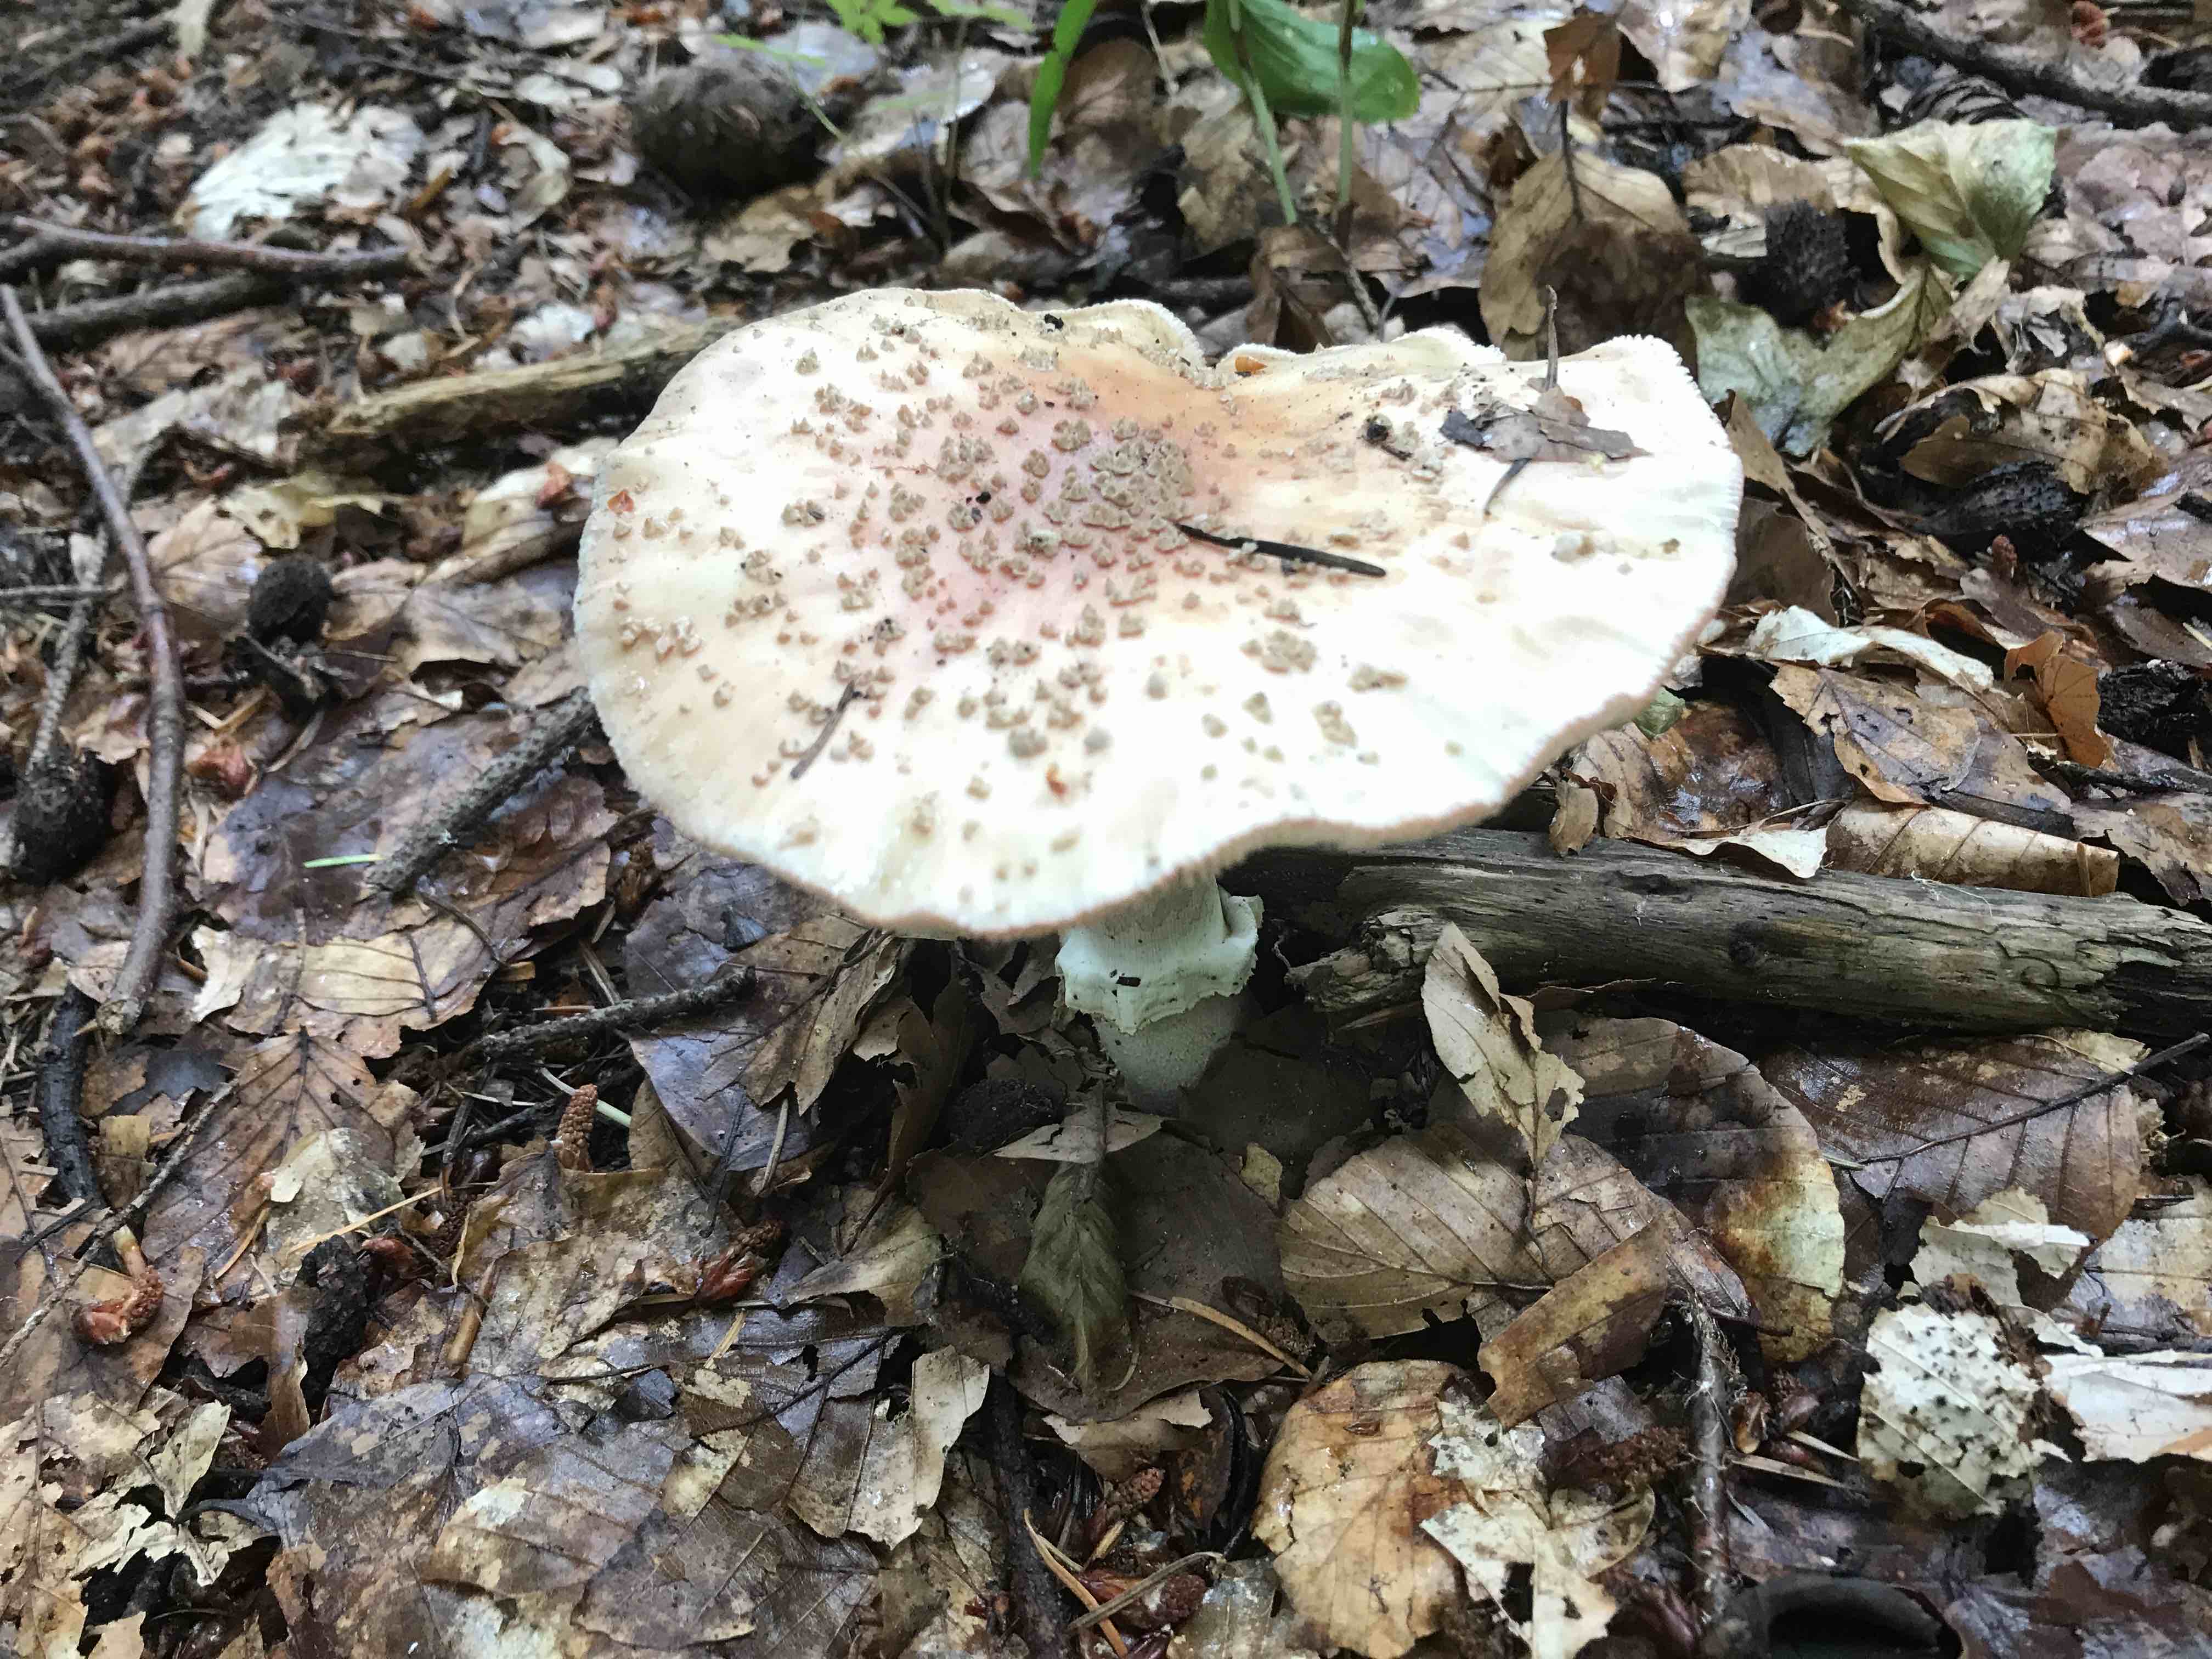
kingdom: Fungi
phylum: Basidiomycota
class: Agaricomycetes
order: Agaricales
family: Amanitaceae
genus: Amanita
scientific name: Amanita rubescens
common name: rødmende fluesvamp
